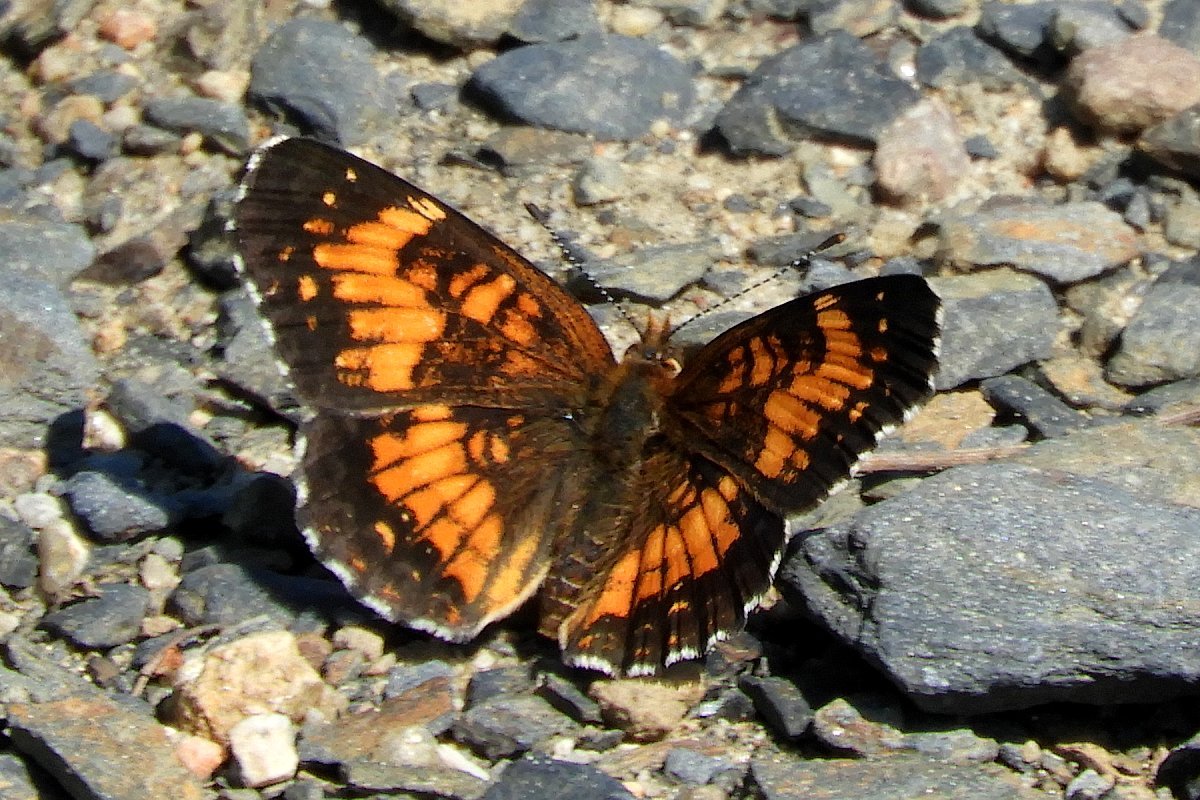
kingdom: Animalia
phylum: Arthropoda
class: Insecta
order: Lepidoptera
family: Nymphalidae
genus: Chlosyne
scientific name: Chlosyne harrisii
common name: Harris's Checkerspot
